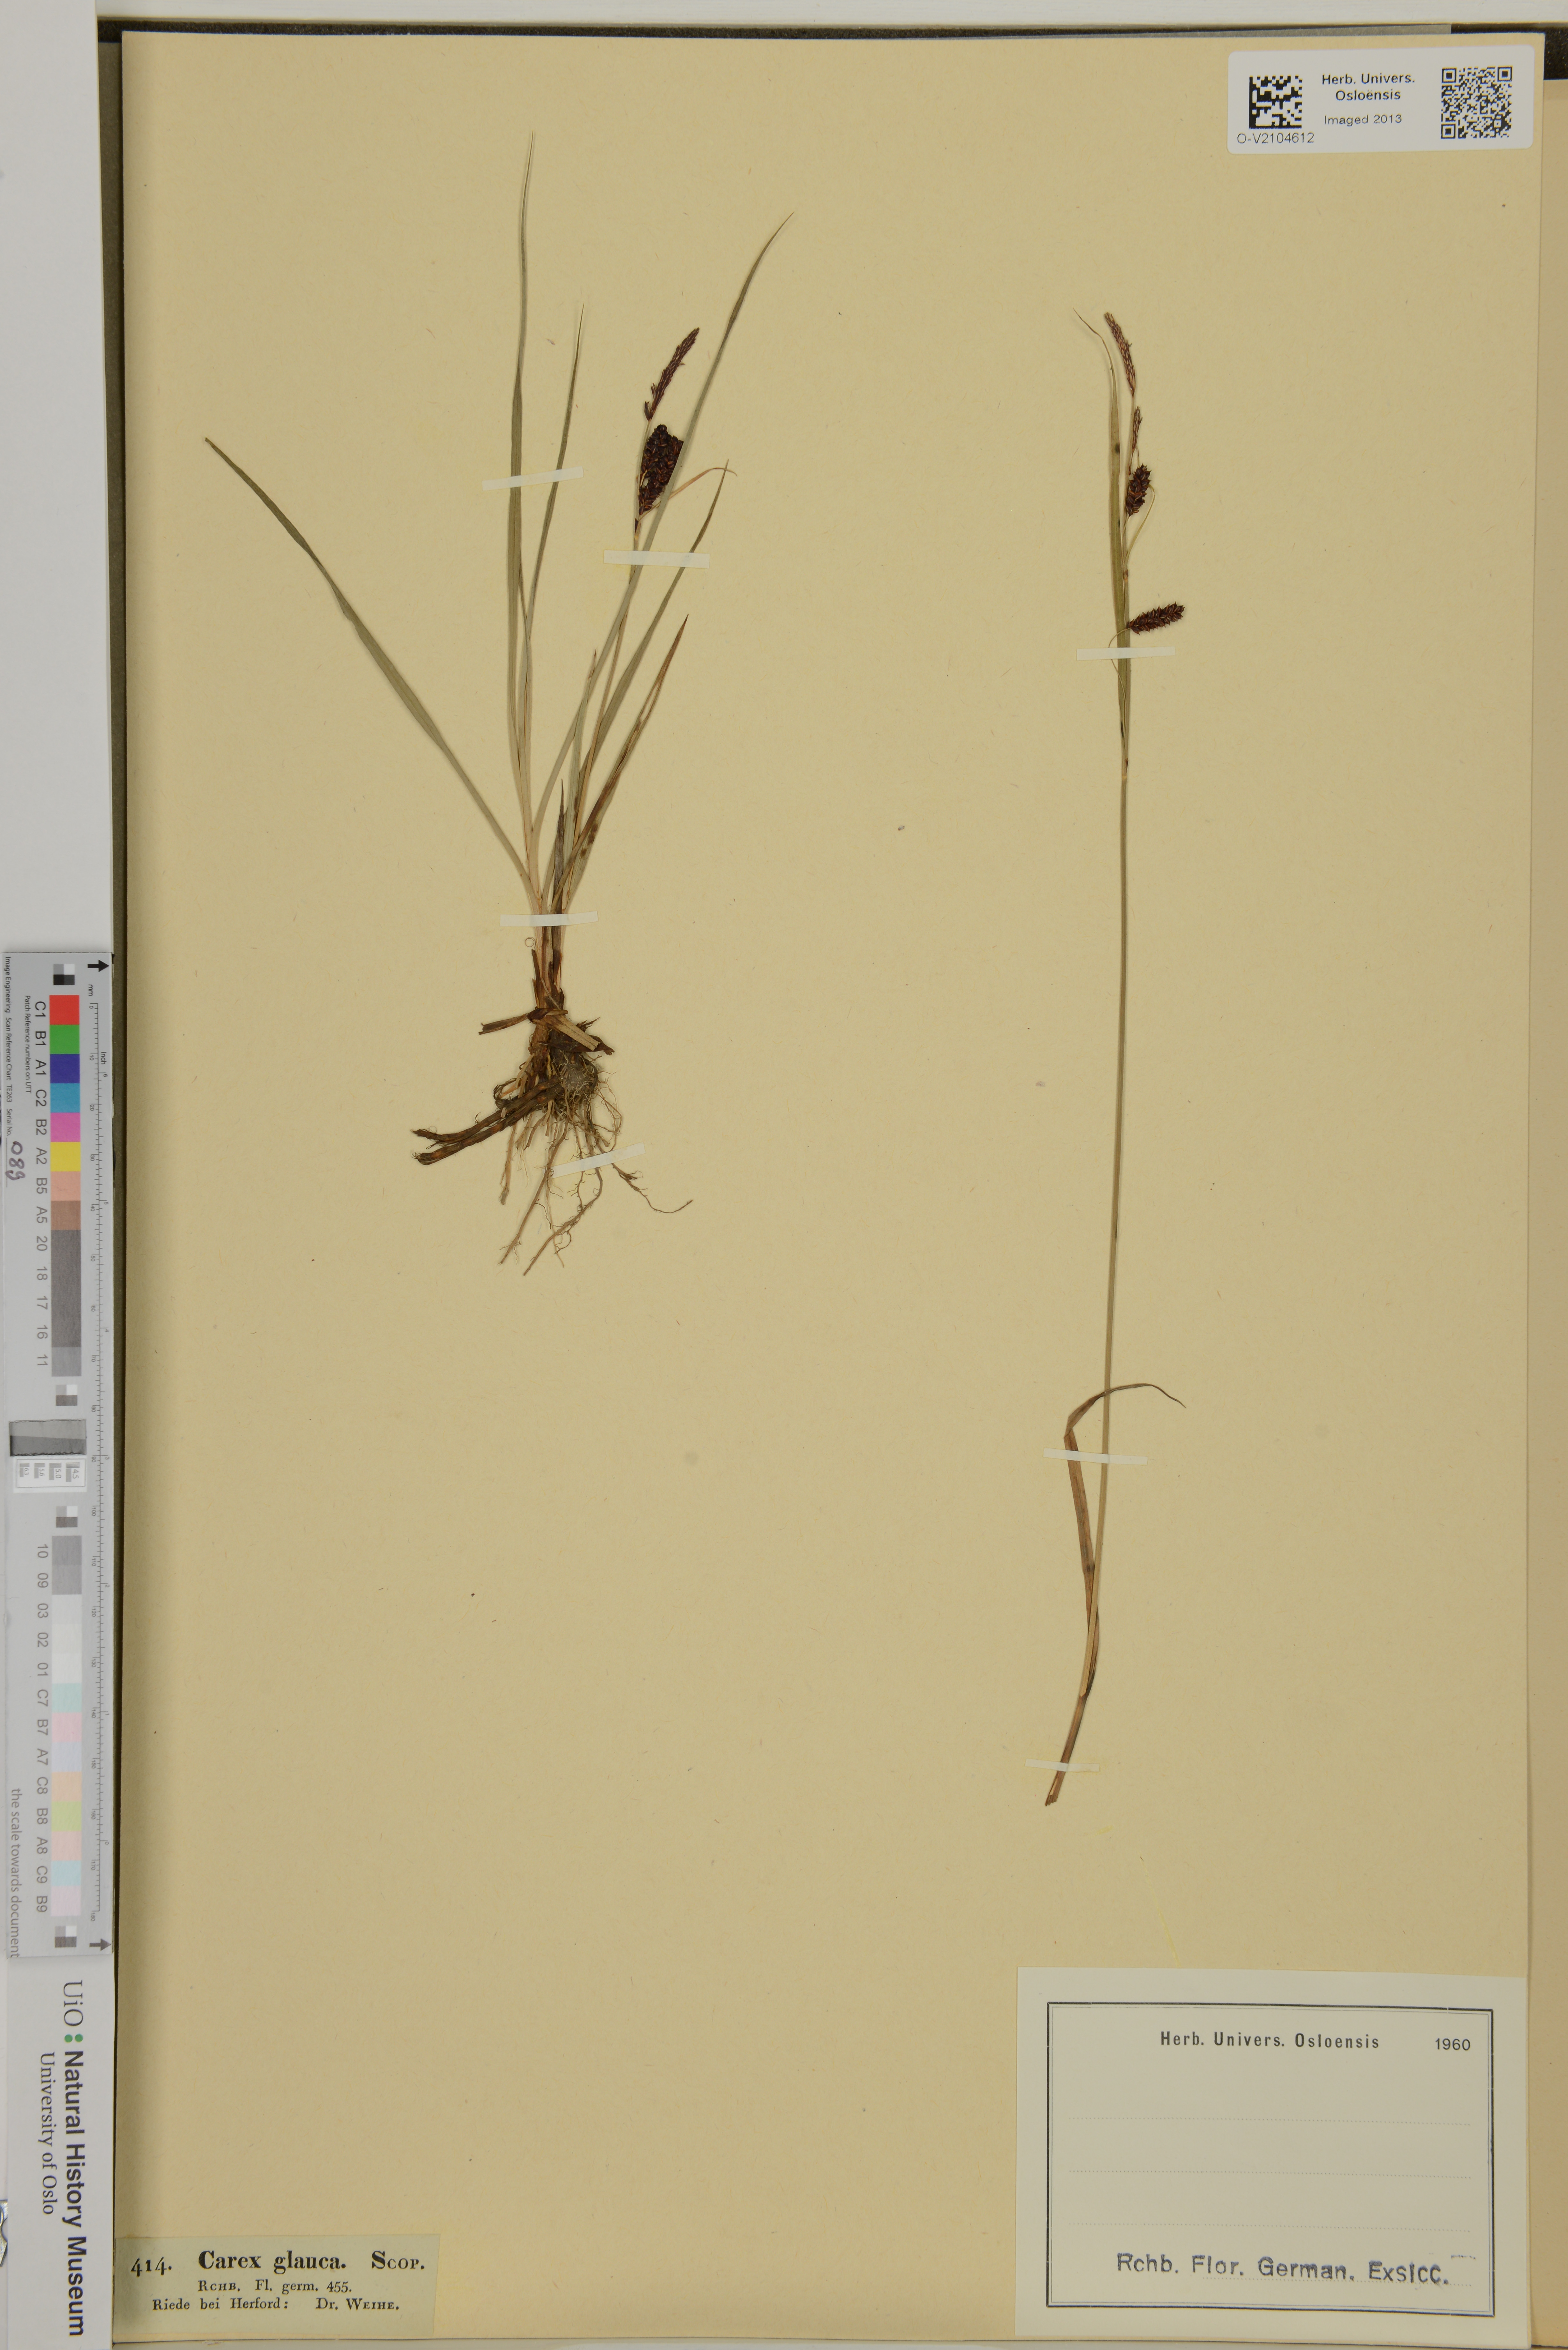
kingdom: Plantae
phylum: Tracheophyta
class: Liliopsida
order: Poales
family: Cyperaceae
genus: Carex
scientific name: Carex flacca
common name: Glaucous sedge
